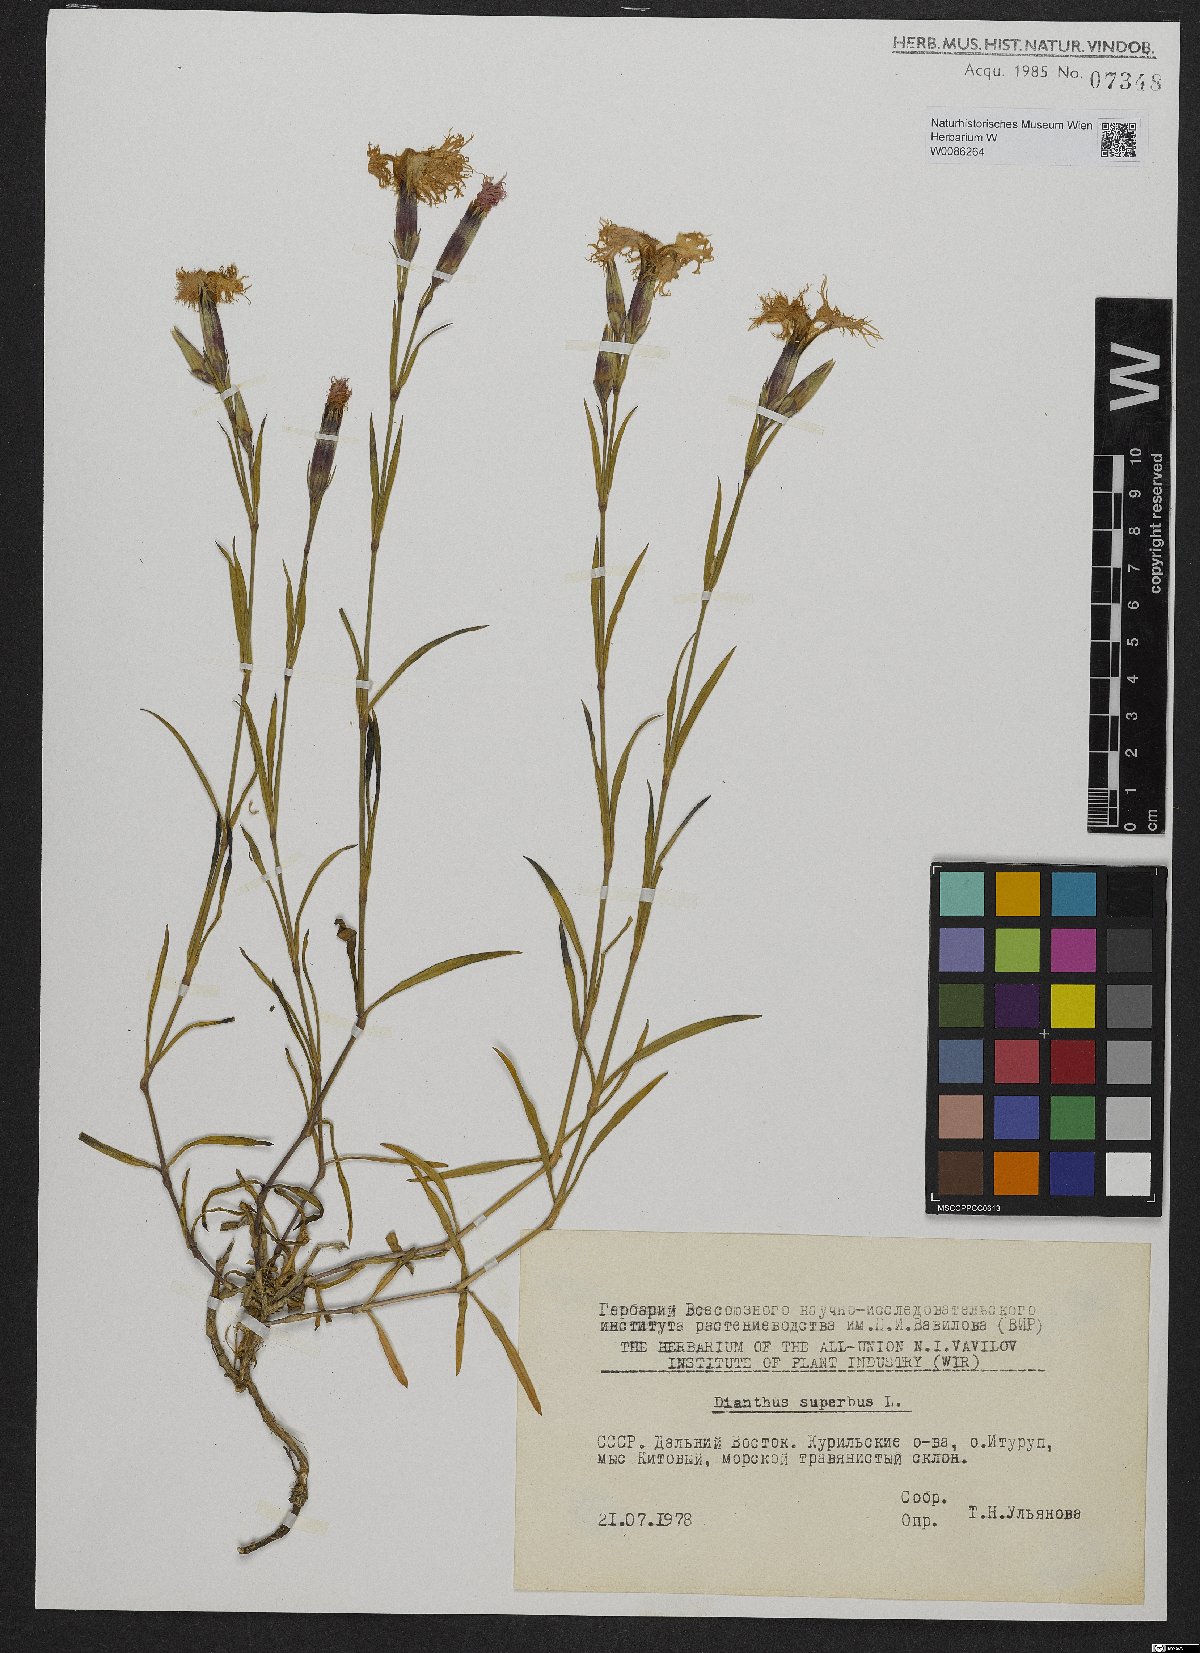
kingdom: Plantae
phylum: Tracheophyta
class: Magnoliopsida
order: Caryophyllales
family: Caryophyllaceae
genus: Dianthus
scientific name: Dianthus superbus
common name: Fringed pink
